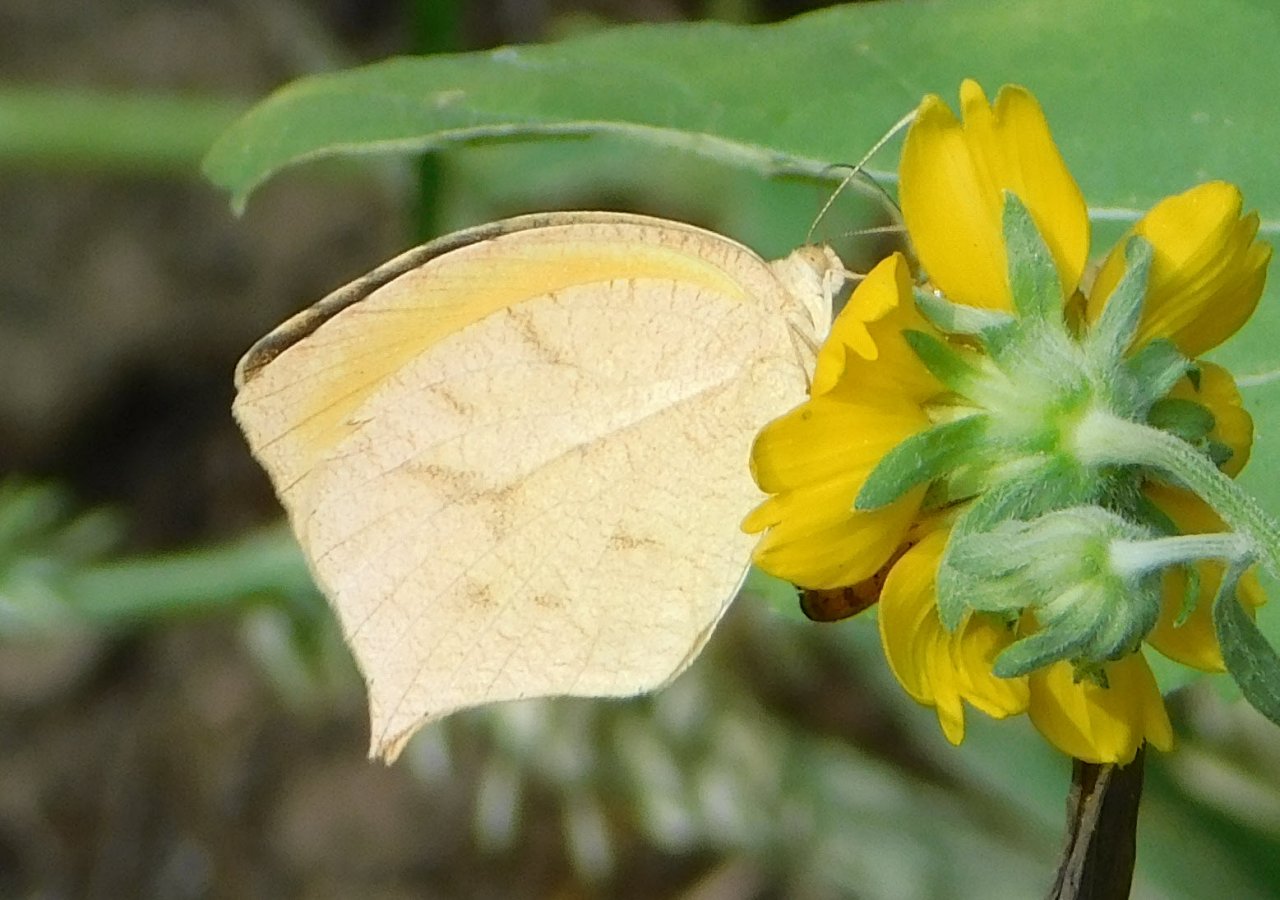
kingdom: Animalia
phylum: Arthropoda
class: Insecta
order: Lepidoptera
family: Pieridae
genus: Pyrisitia
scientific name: Pyrisitia proterpia
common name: Tailed Orange
